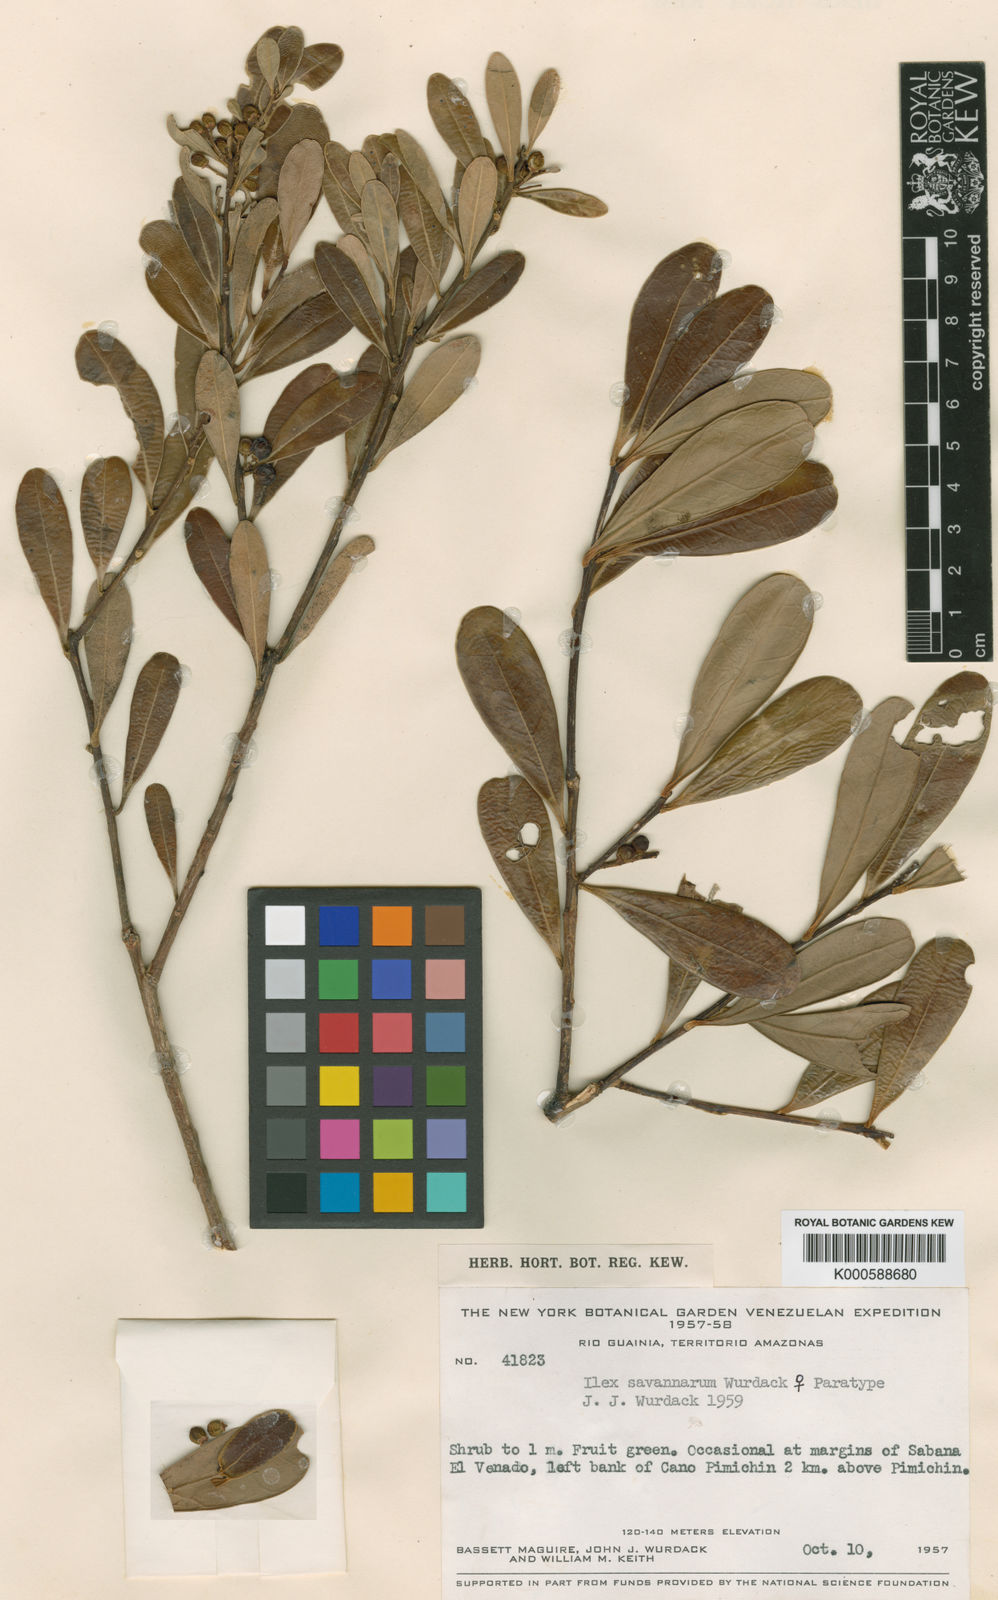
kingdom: Plantae
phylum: Tracheophyta
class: Magnoliopsida
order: Aquifoliales
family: Aquifoliaceae
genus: Ilex
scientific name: Ilex savannarum
